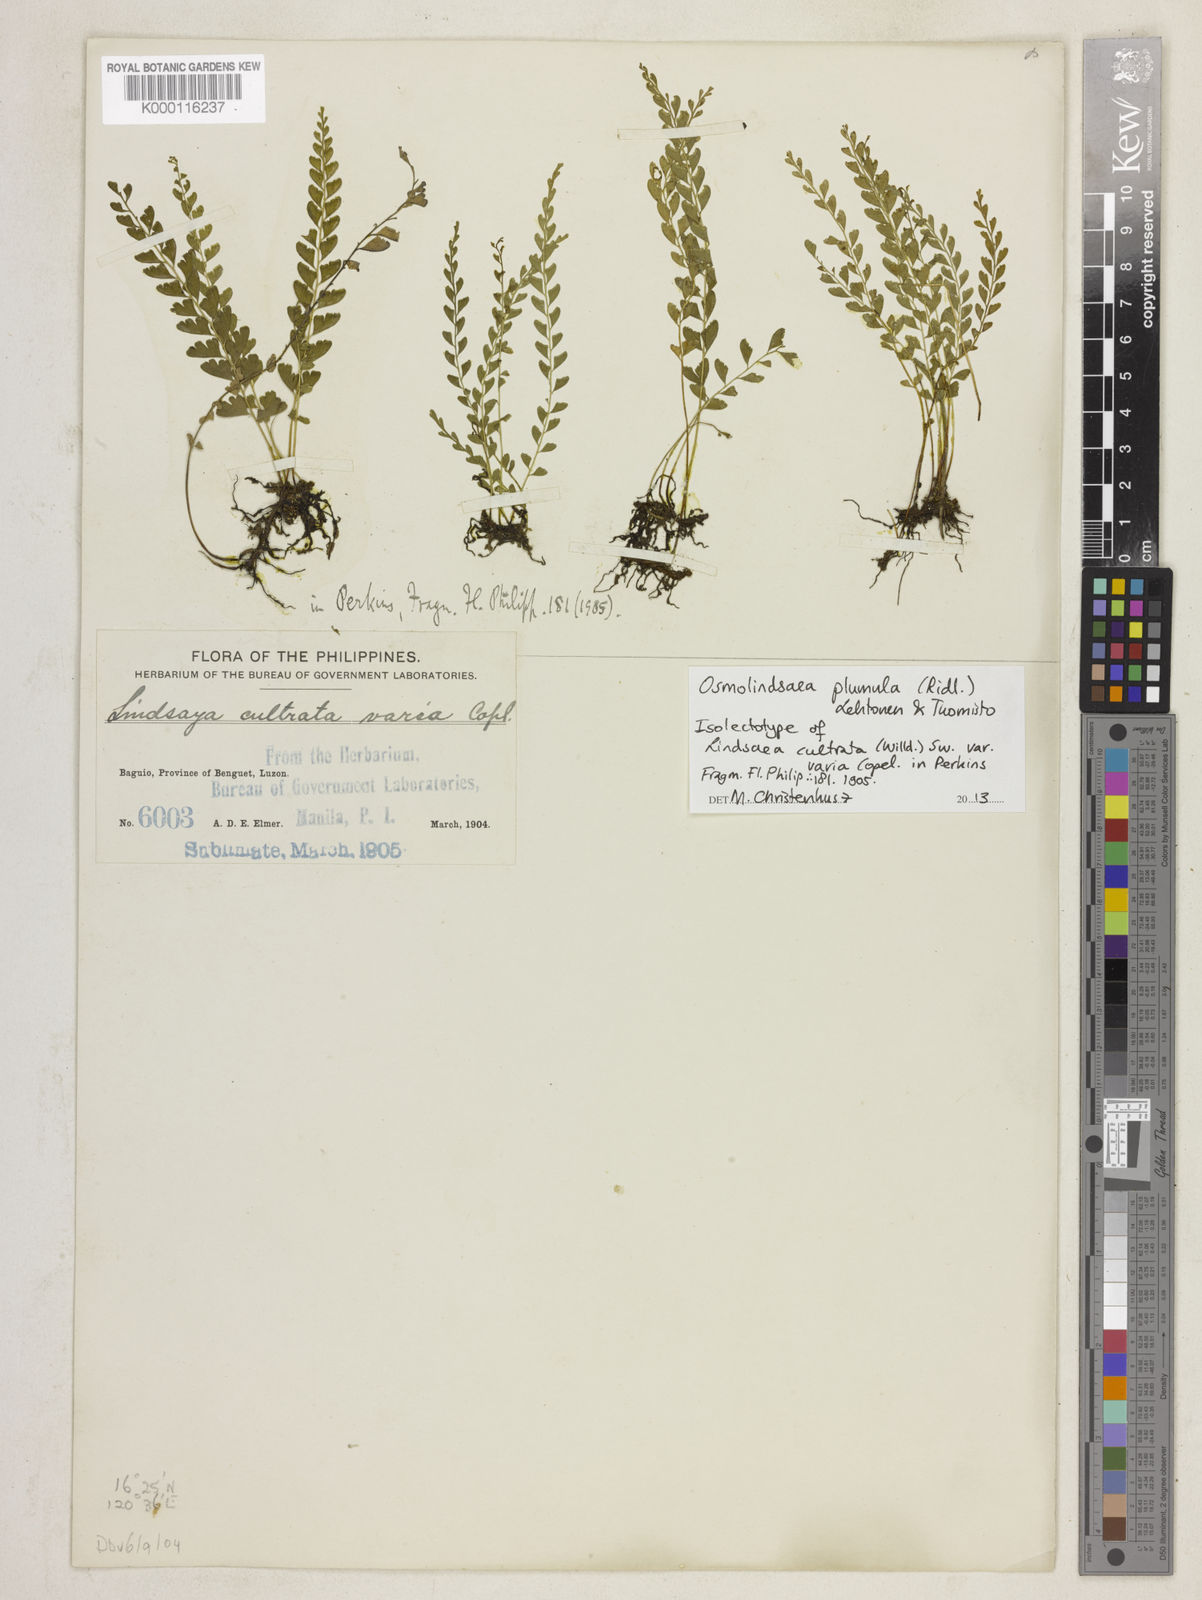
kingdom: Plantae
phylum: Tracheophyta
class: Polypodiopsida
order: Polypodiales
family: Lindsaeaceae
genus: Osmolindsaea
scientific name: Osmolindsaea plumula
